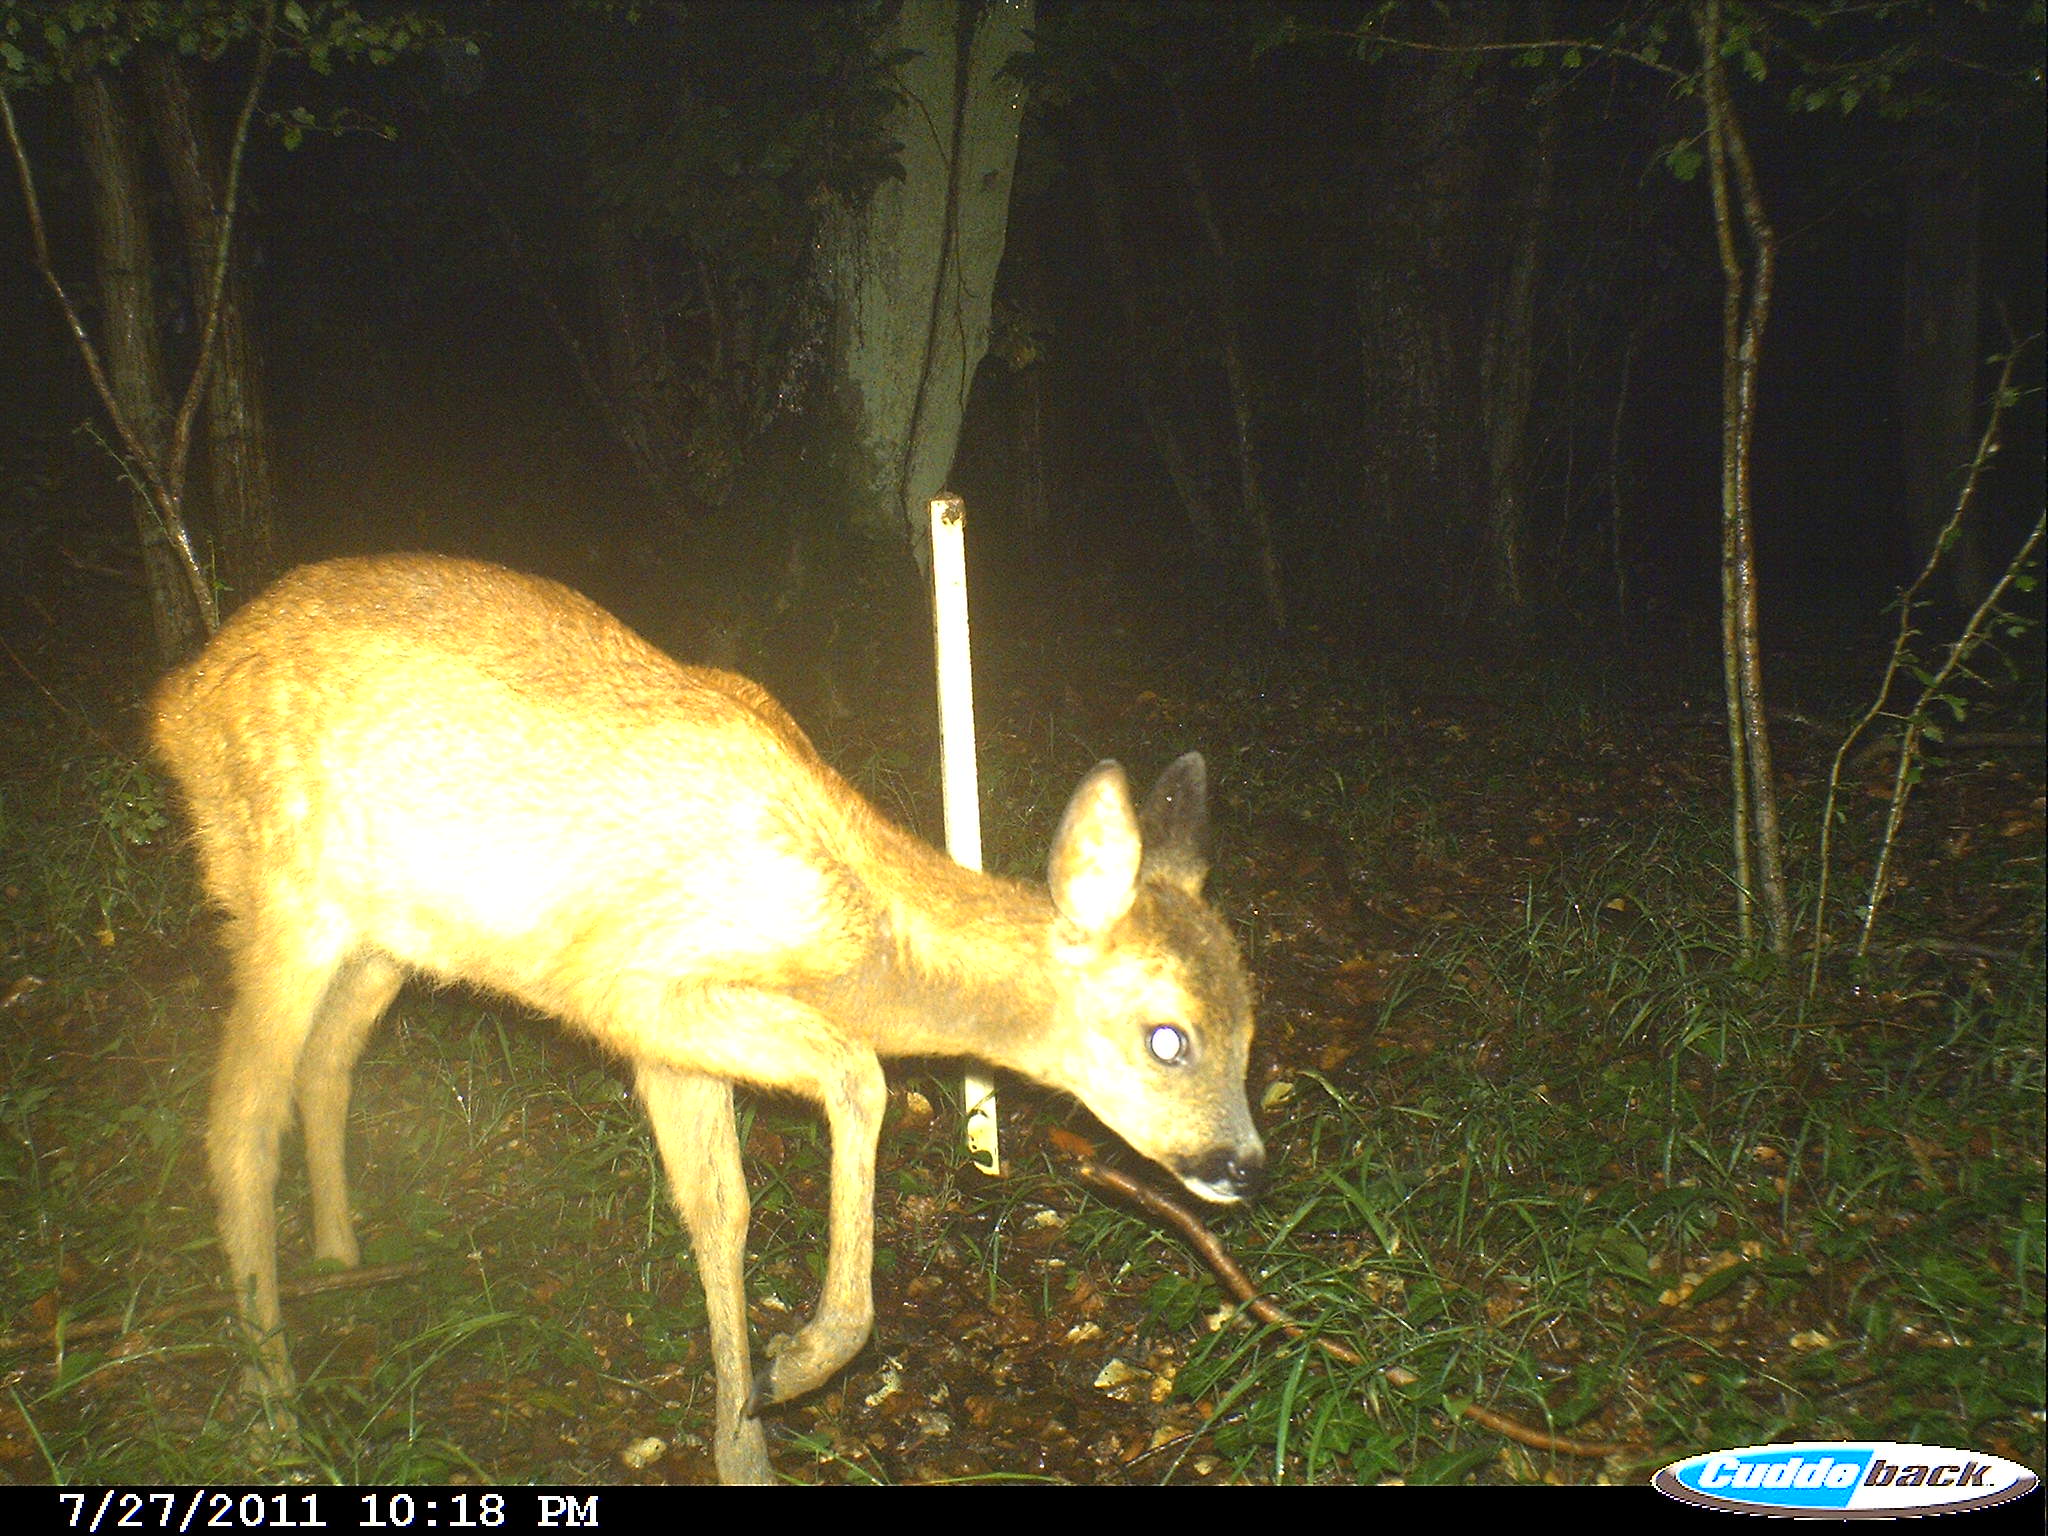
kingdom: Animalia
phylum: Chordata
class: Mammalia
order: Artiodactyla
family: Cervidae
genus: Capreolus
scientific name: Capreolus capreolus
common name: Western roe deer
